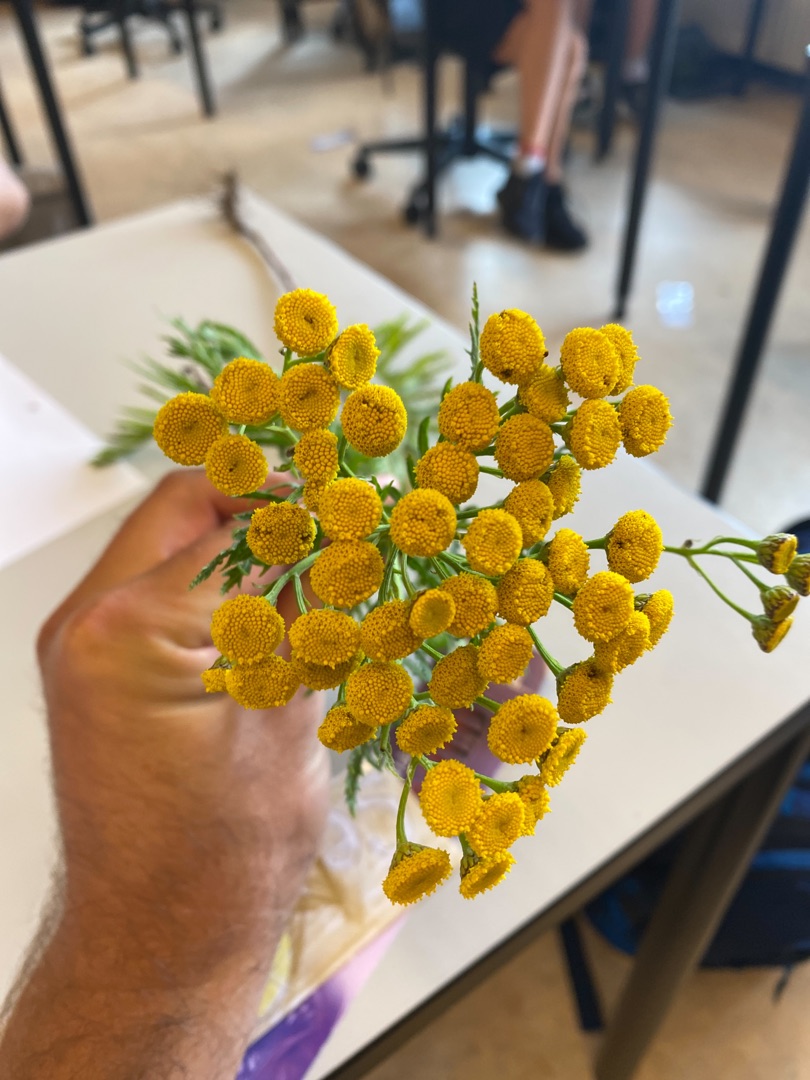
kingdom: Plantae
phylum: Tracheophyta
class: Magnoliopsida
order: Asterales
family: Asteraceae
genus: Tanacetum
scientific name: Tanacetum vulgare
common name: Rejnfan
